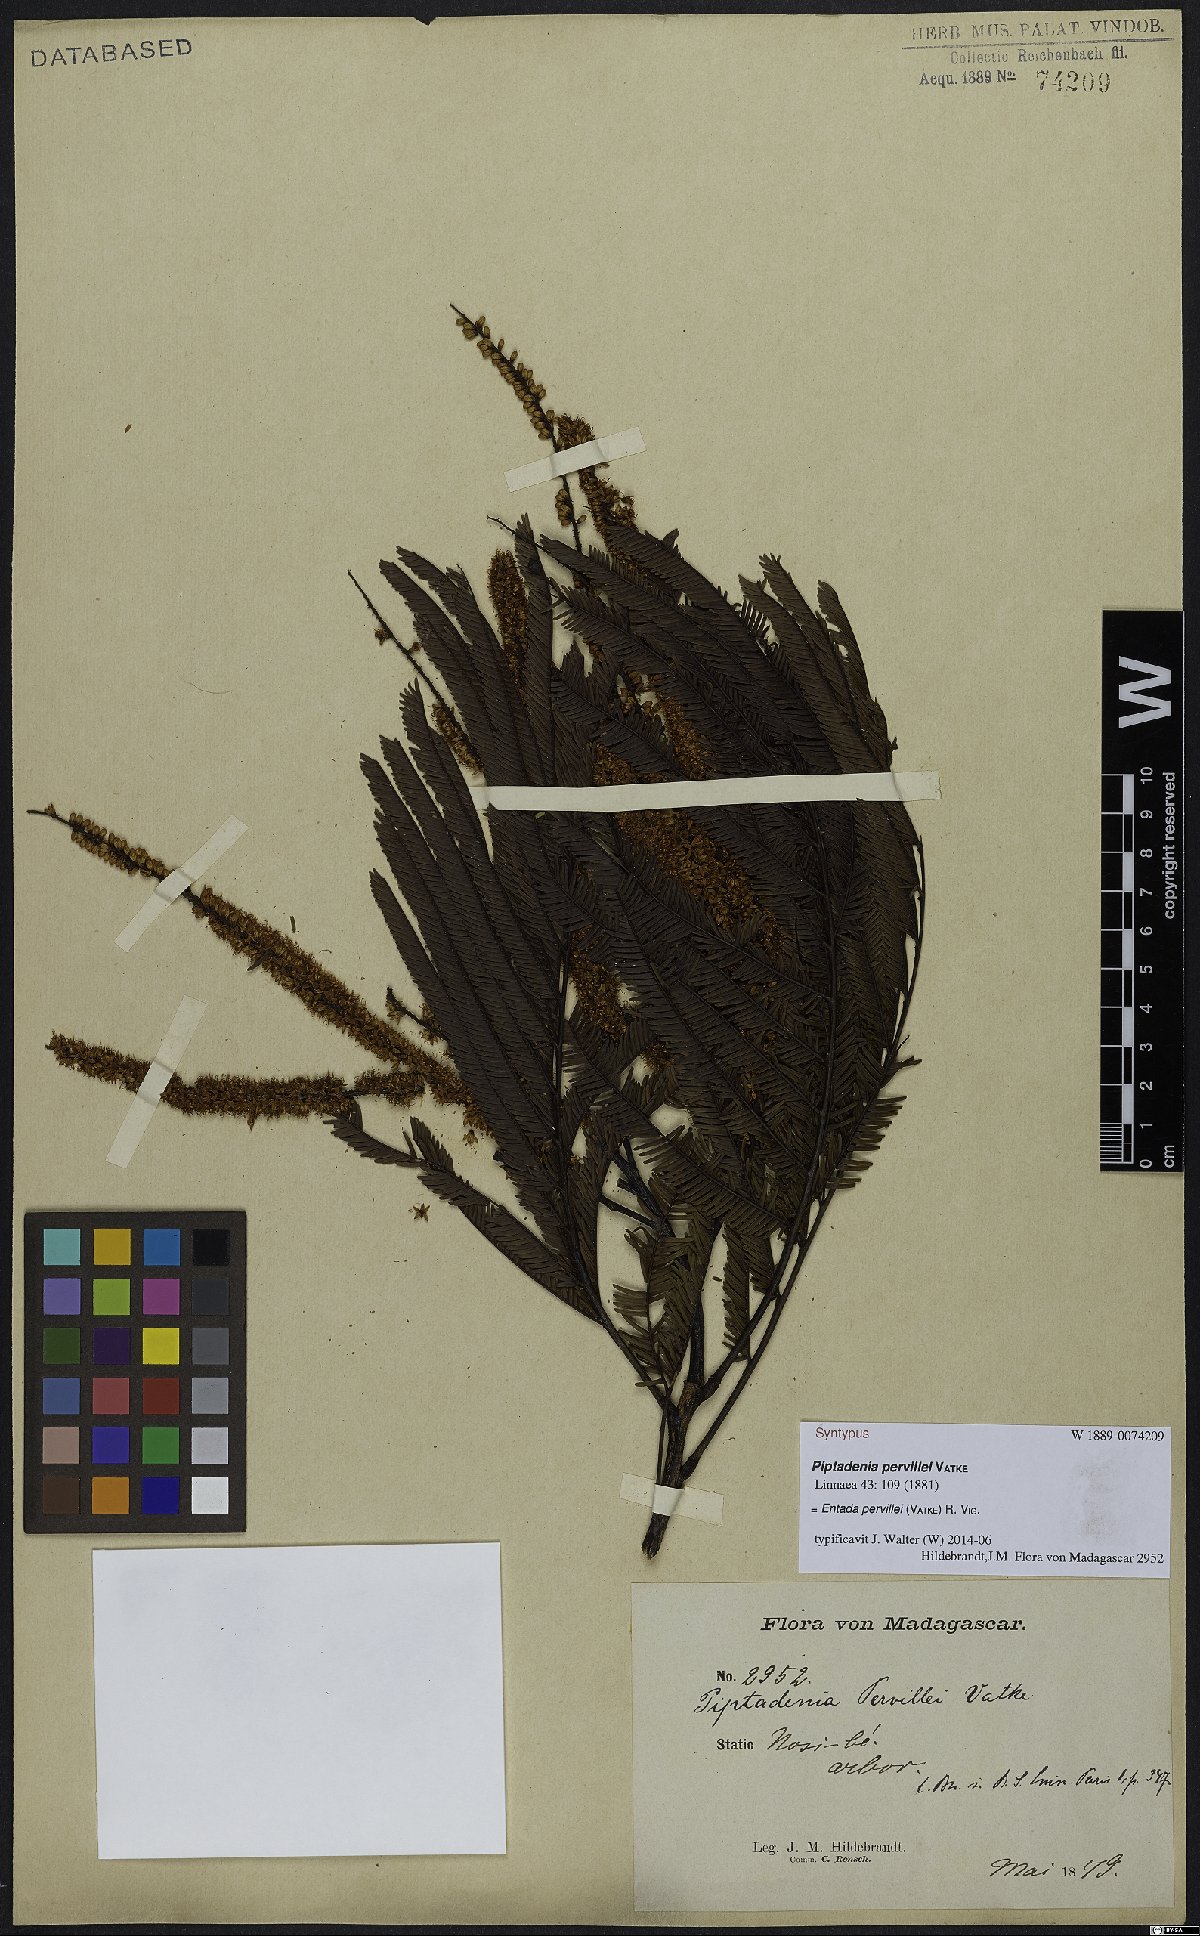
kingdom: Plantae
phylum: Tracheophyta
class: Magnoliopsida
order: Fabales
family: Fabaceae
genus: Entada
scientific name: Entada pervillei
